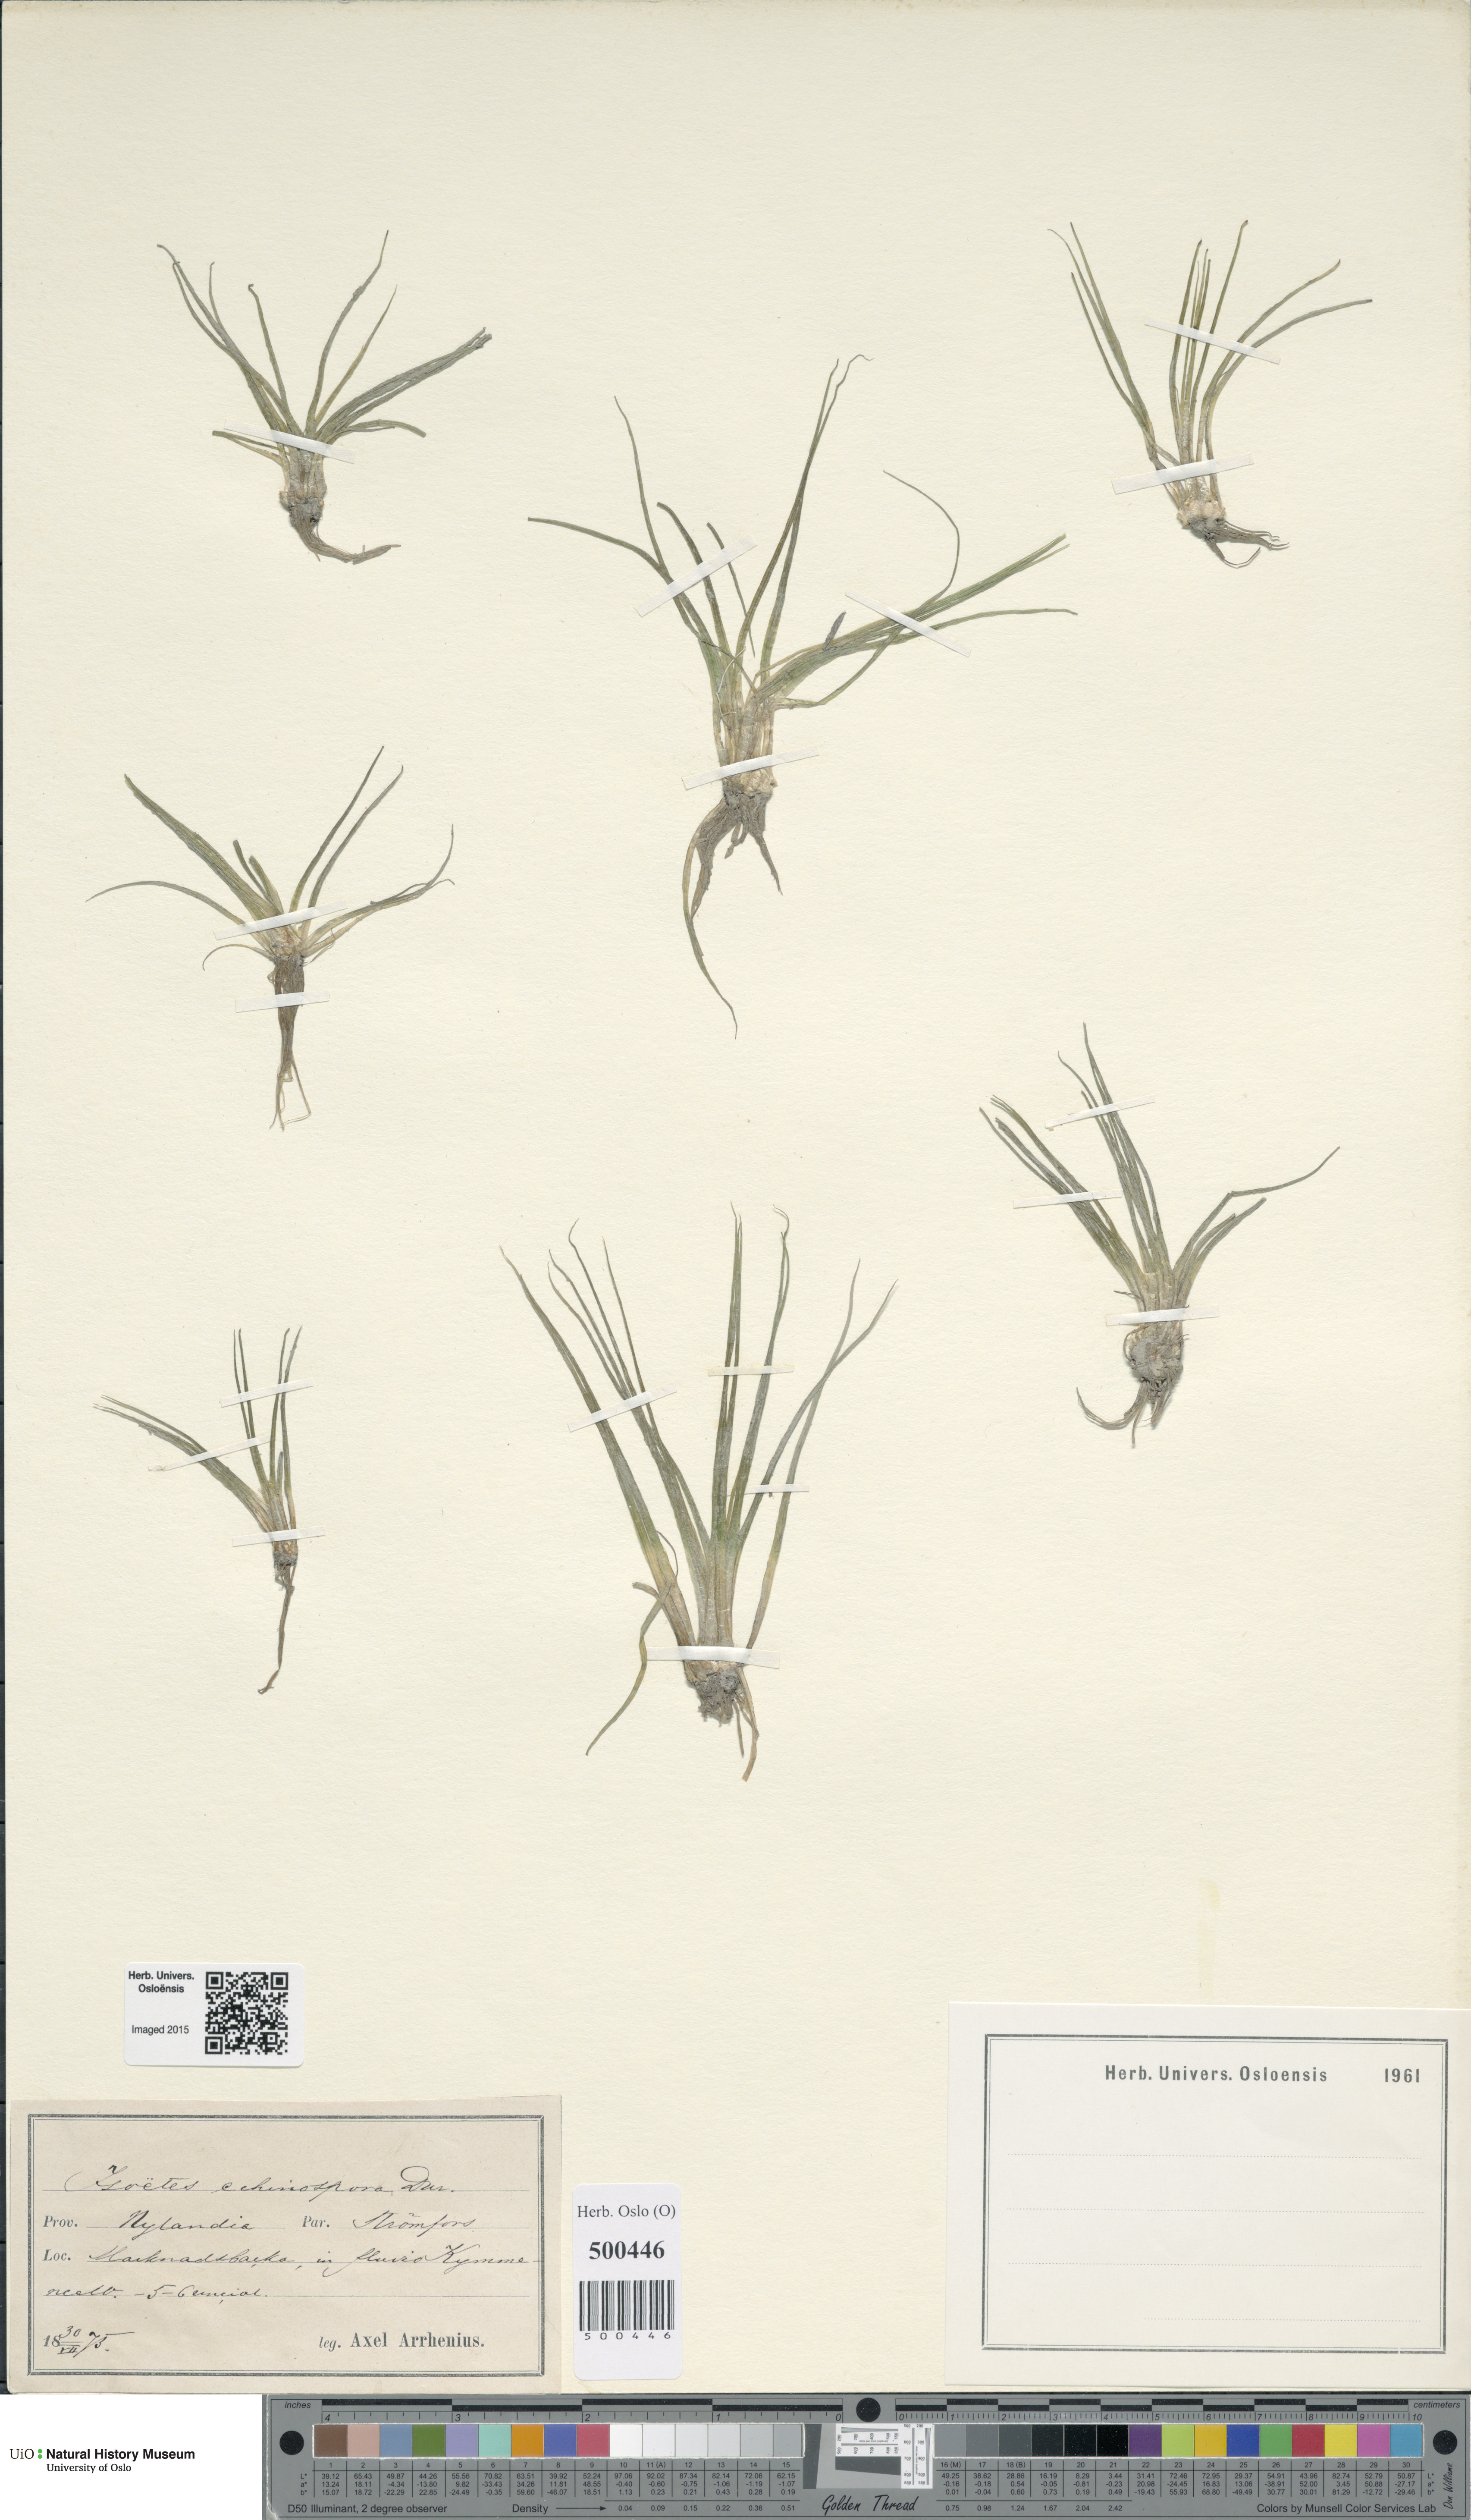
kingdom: Plantae
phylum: Tracheophyta
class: Lycopodiopsida
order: Isoetales
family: Isoetaceae
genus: Isoetes
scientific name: Isoetes echinospora
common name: Spring quillwort
